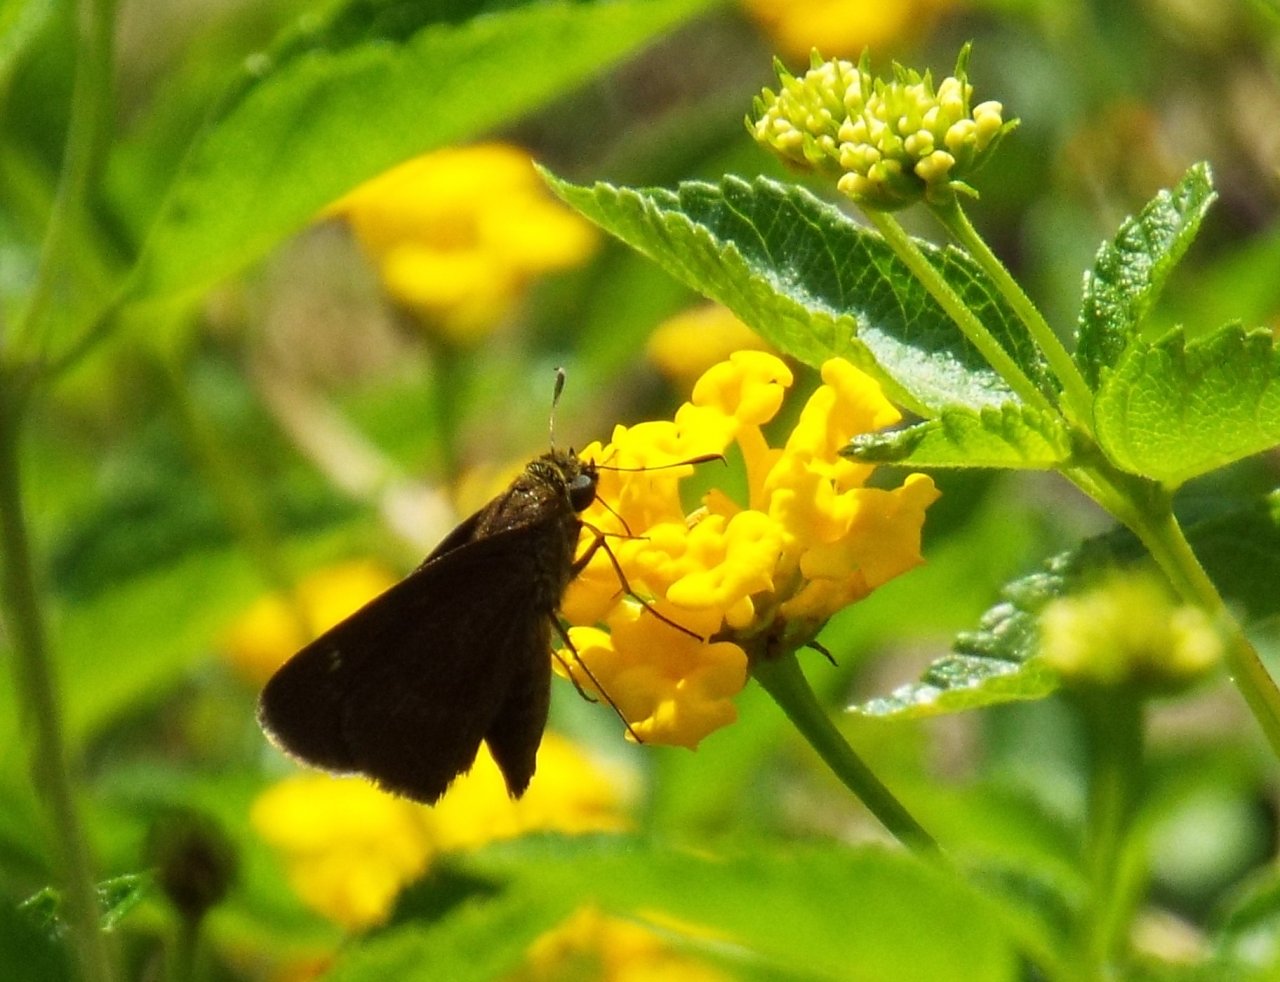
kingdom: Animalia
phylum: Arthropoda
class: Insecta
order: Lepidoptera
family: Hesperiidae
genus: Lerema
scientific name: Lerema accius
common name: Clouded Skipper
